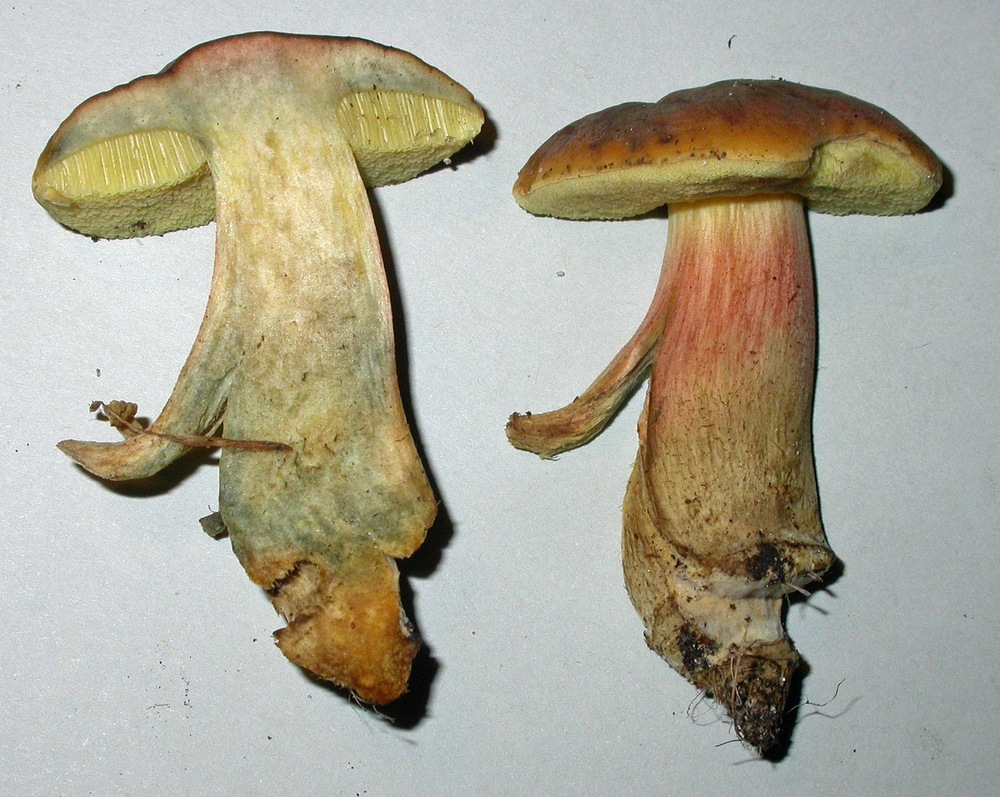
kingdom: Fungi
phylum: Basidiomycota
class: Agaricomycetes
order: Boletales
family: Boletaceae
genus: Hortiboletus
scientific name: Hortiboletus bubalinus
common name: aurora-rørhat
